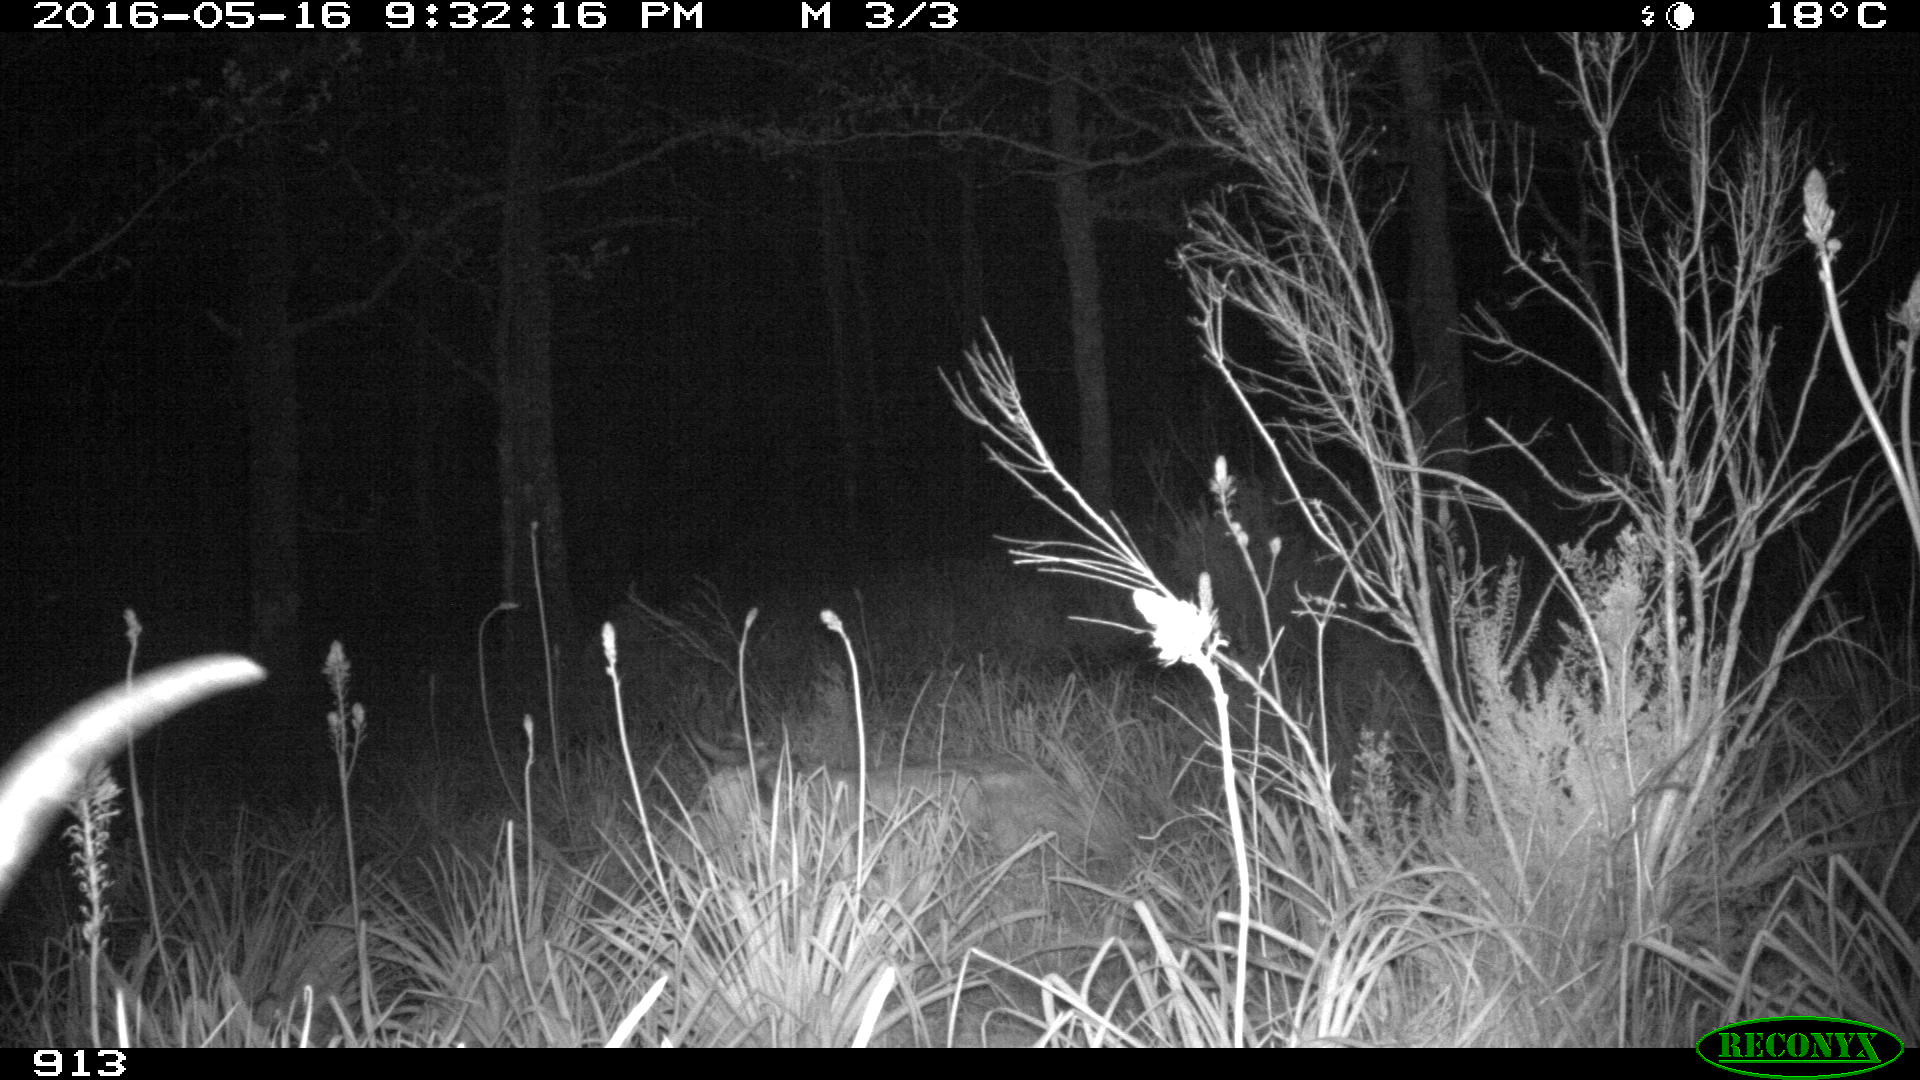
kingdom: Animalia
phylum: Chordata
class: Mammalia
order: Artiodactyla
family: Bovidae
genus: Bos
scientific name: Bos taurus
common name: Domesticated cattle
